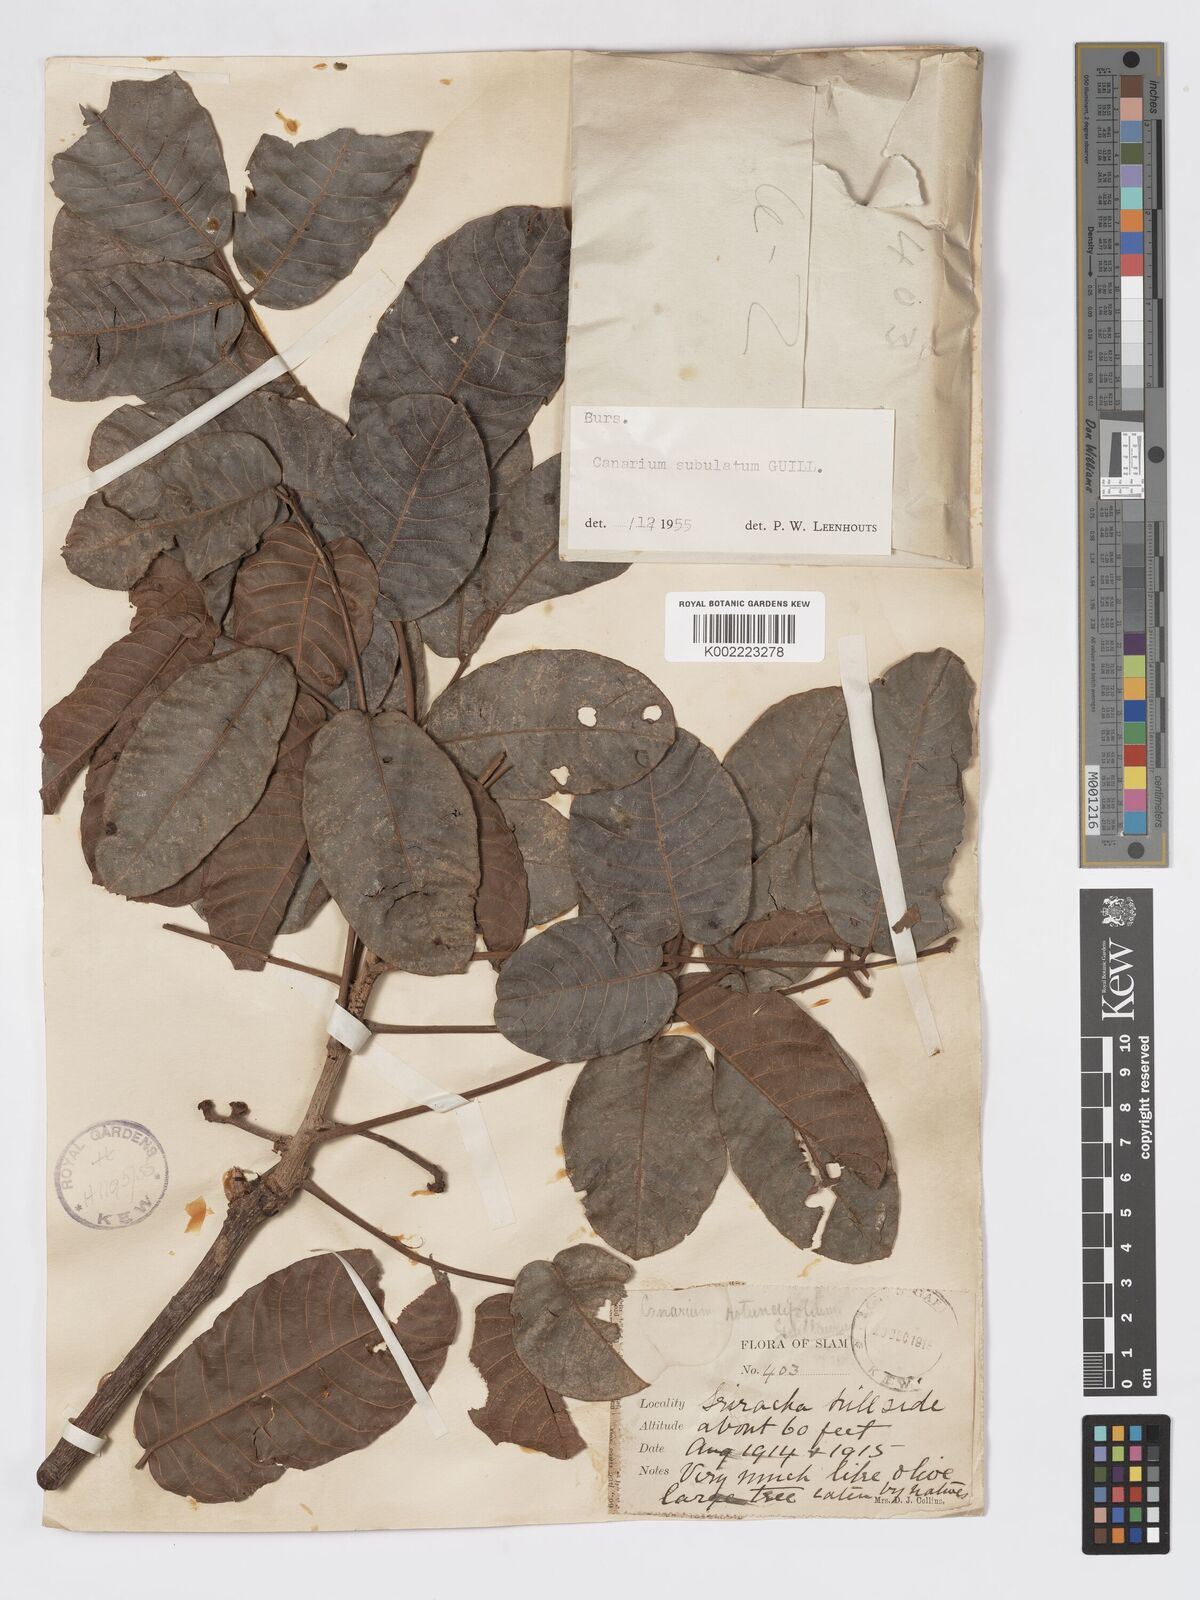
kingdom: Plantae
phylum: Tracheophyta
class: Magnoliopsida
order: Sapindales
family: Burseraceae
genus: Canarium
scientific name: Canarium subulatum
